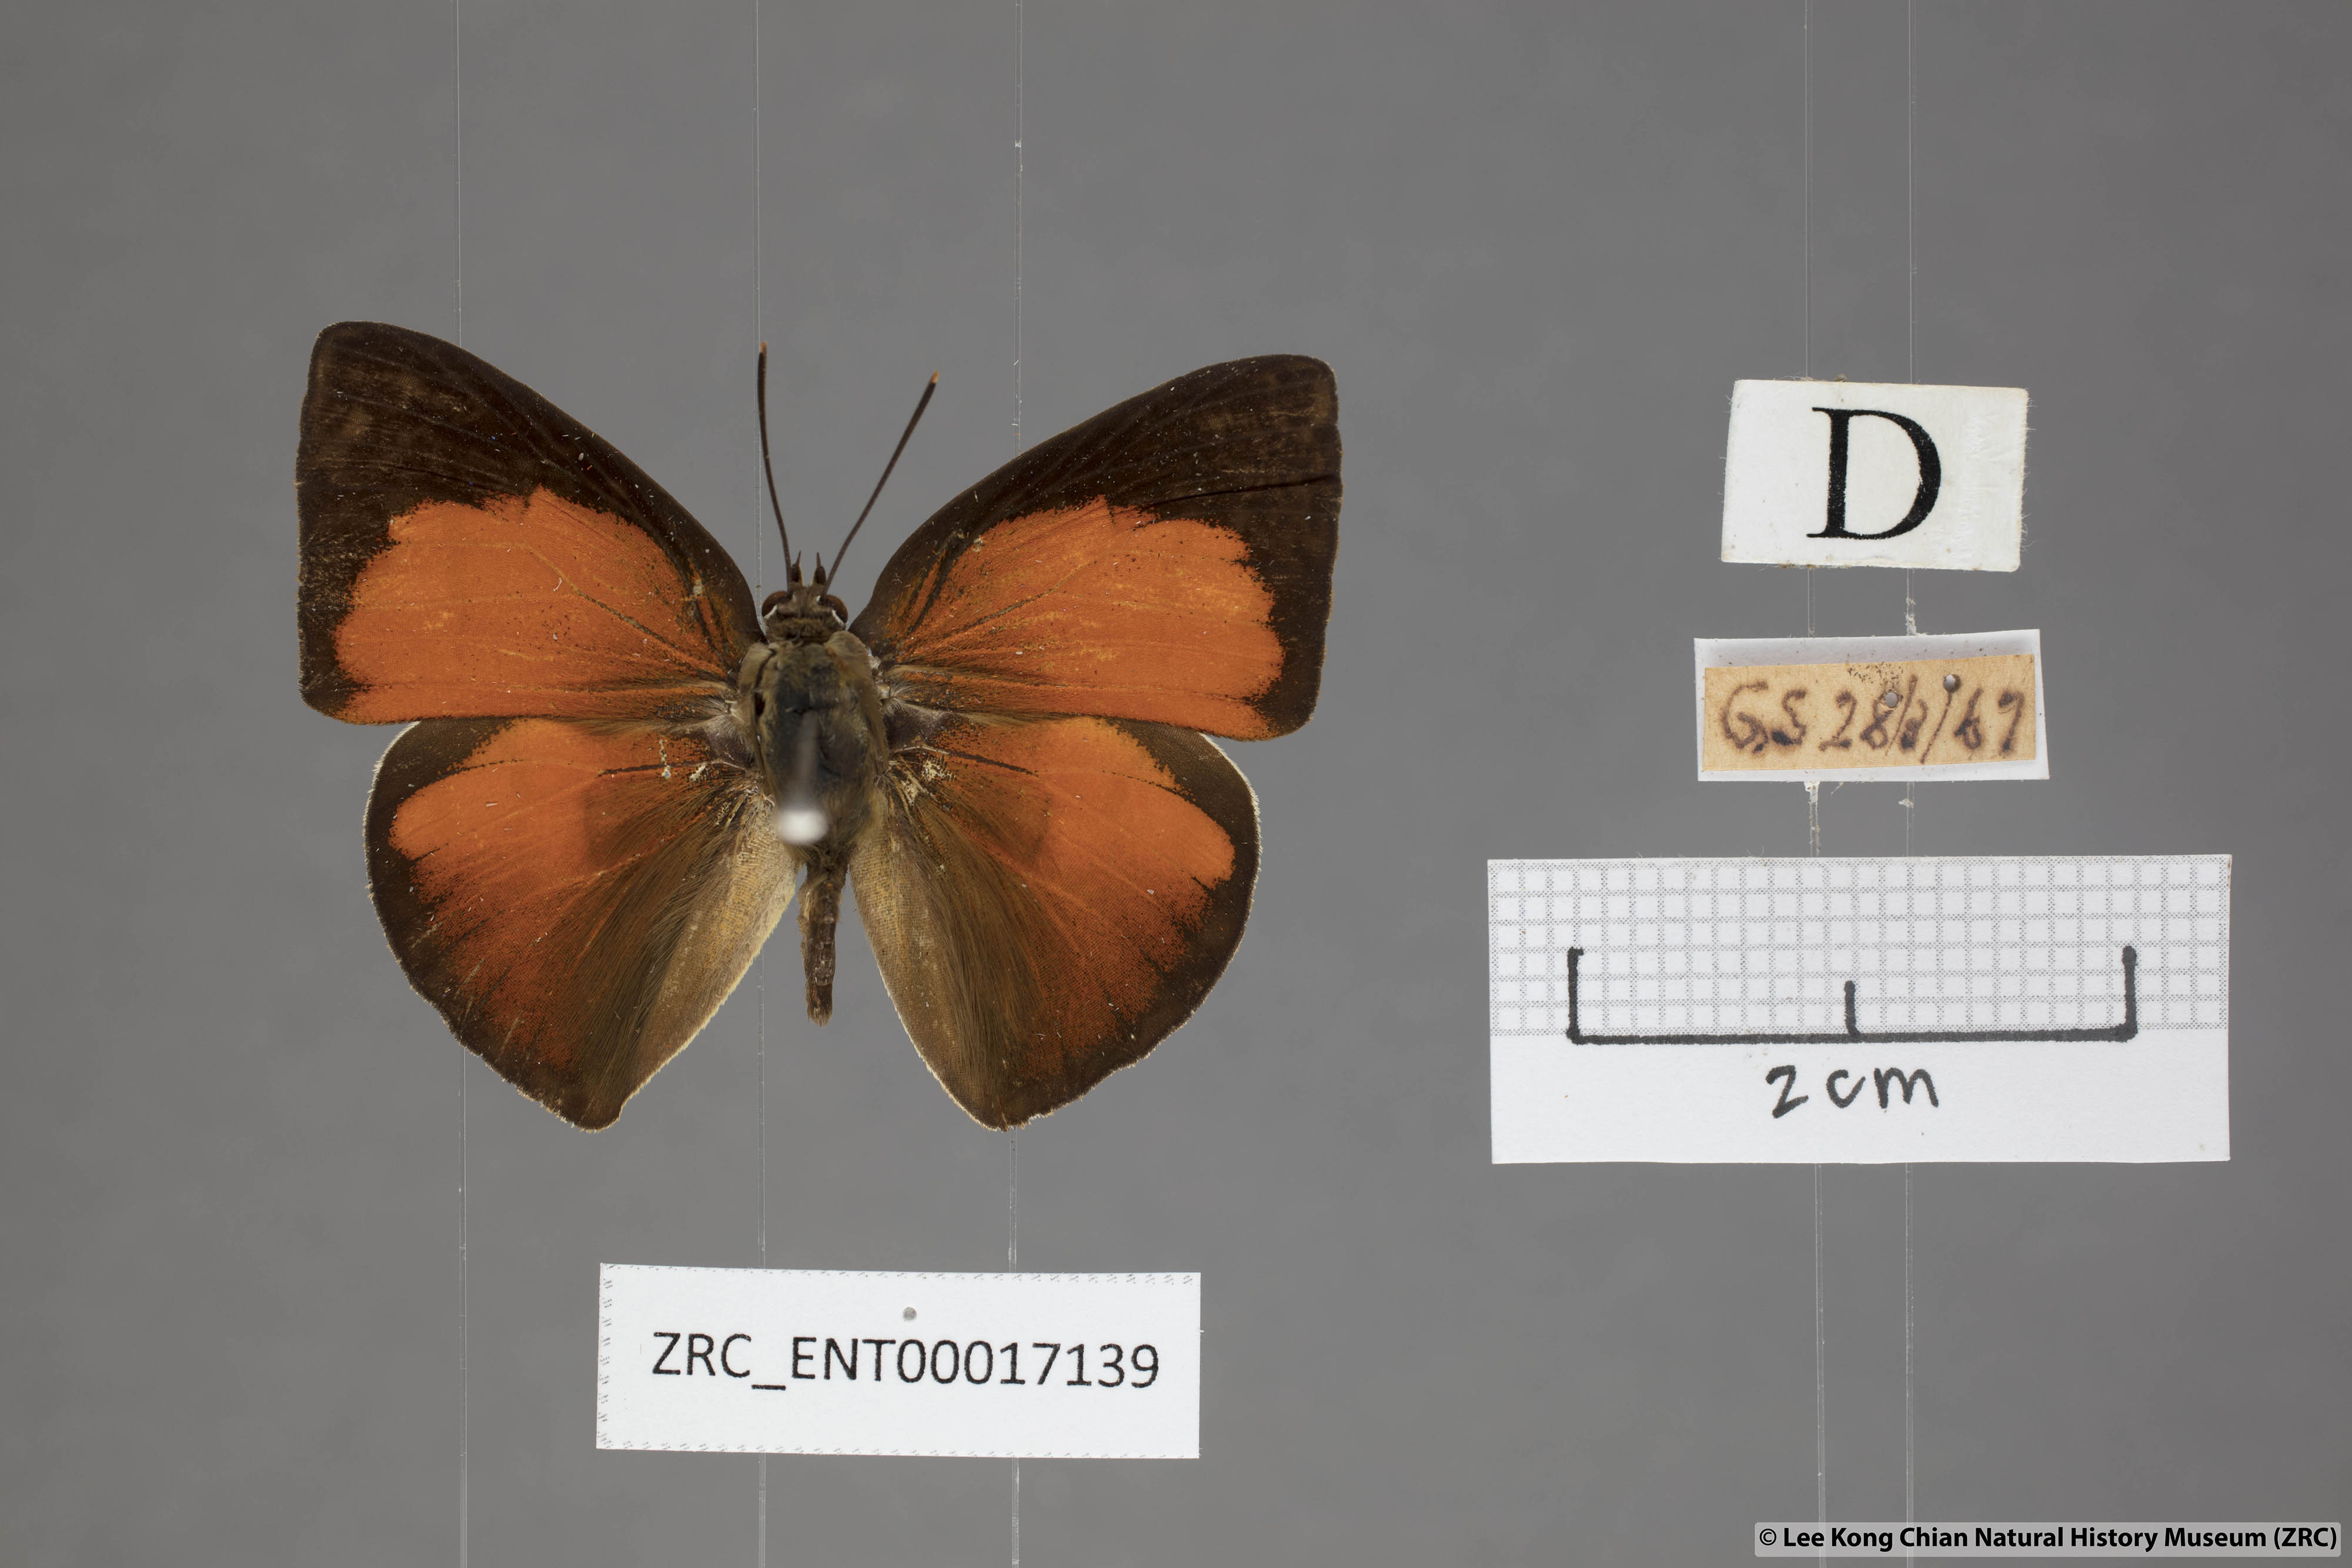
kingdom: Animalia
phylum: Arthropoda
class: Insecta
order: Lepidoptera
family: Lycaenidae
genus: Curetis
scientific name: Curetis insularis
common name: Narrow-banded sunbeam
